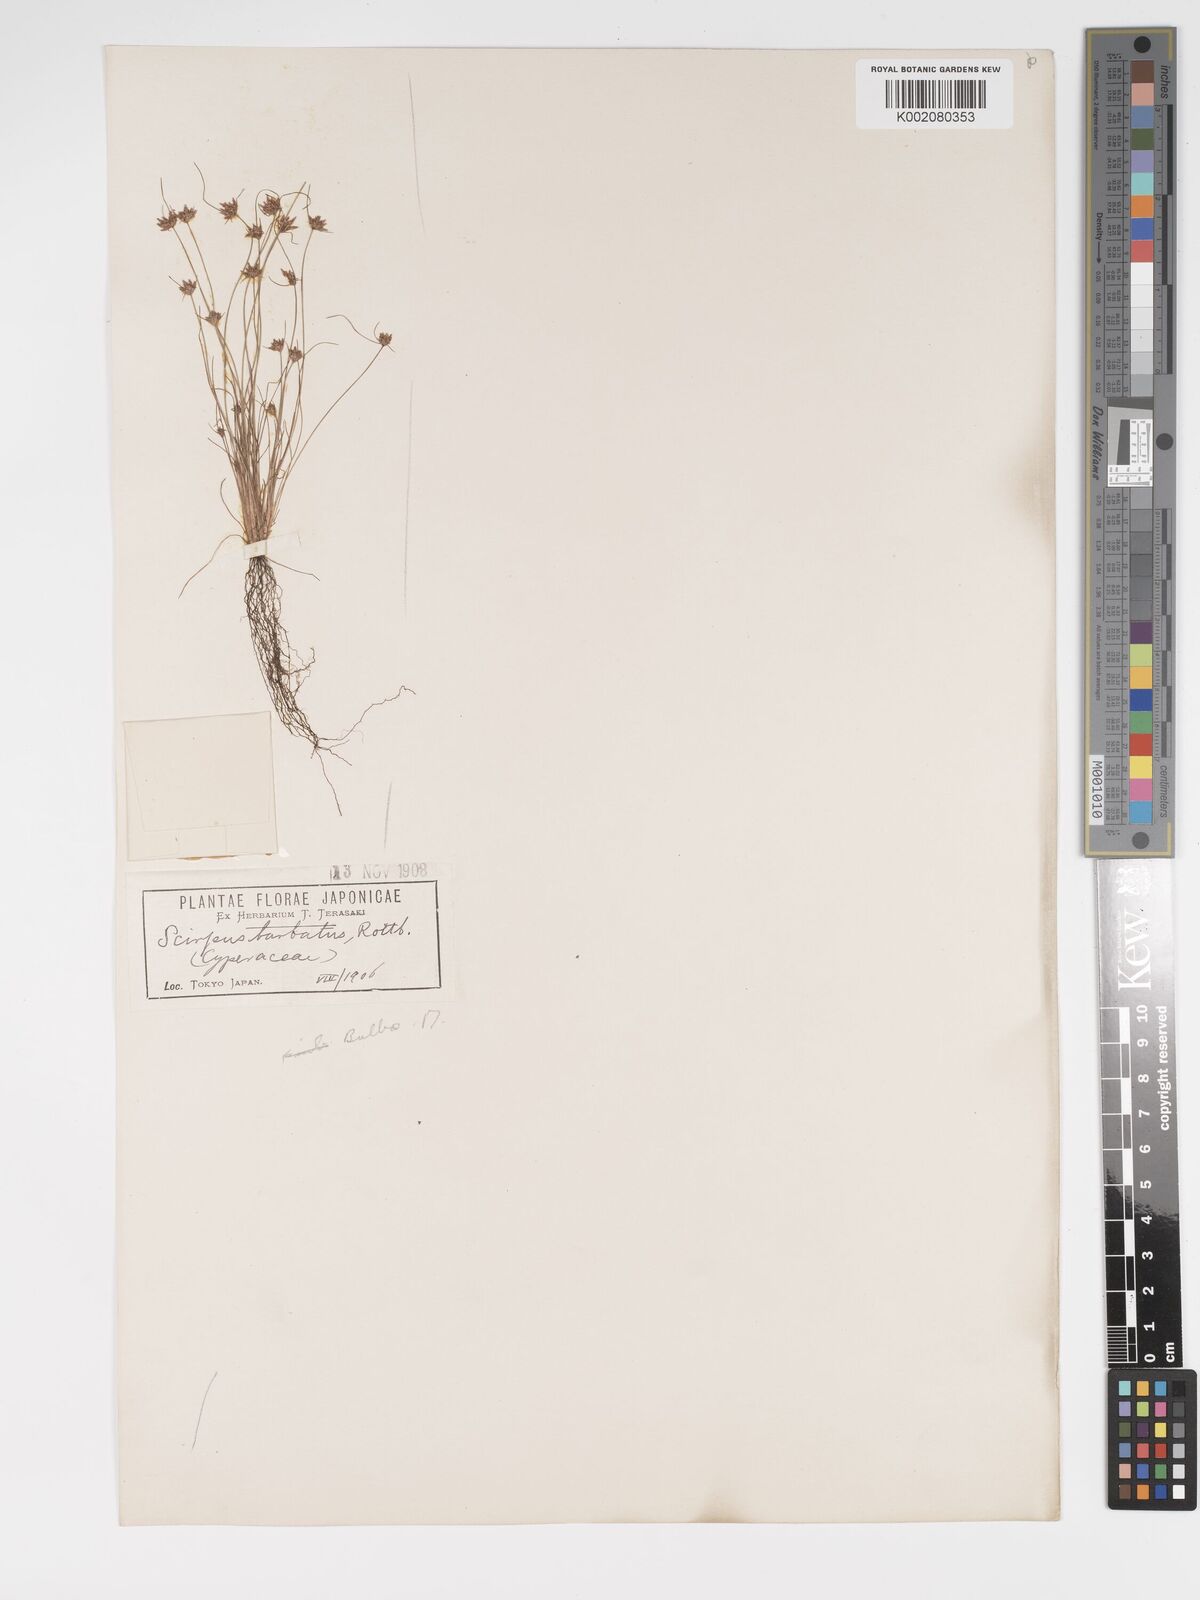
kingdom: Plantae
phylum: Tracheophyta
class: Liliopsida
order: Poales
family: Cyperaceae
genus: Bulbostylis
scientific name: Bulbostylis barbata
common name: Watergrass
